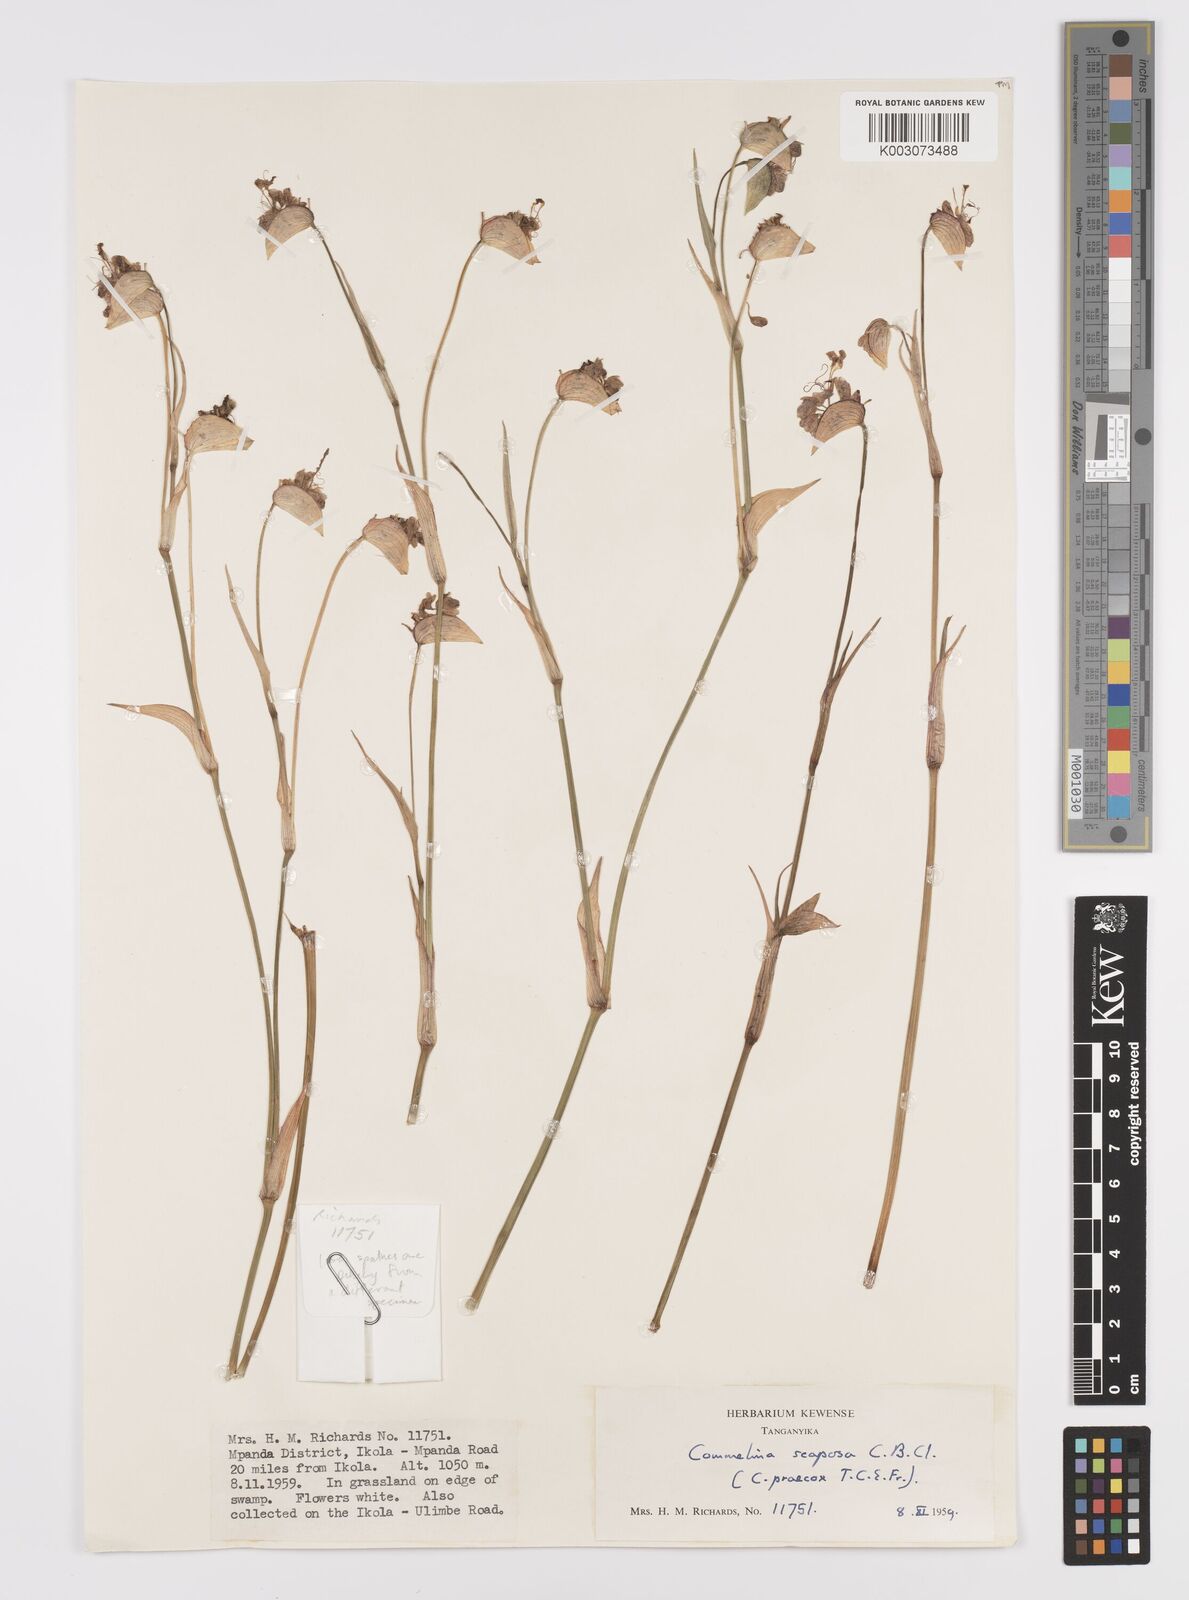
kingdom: Plantae
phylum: Tracheophyta
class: Liliopsida
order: Commelinales
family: Commelinaceae
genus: Commelina
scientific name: Commelina scaposa
